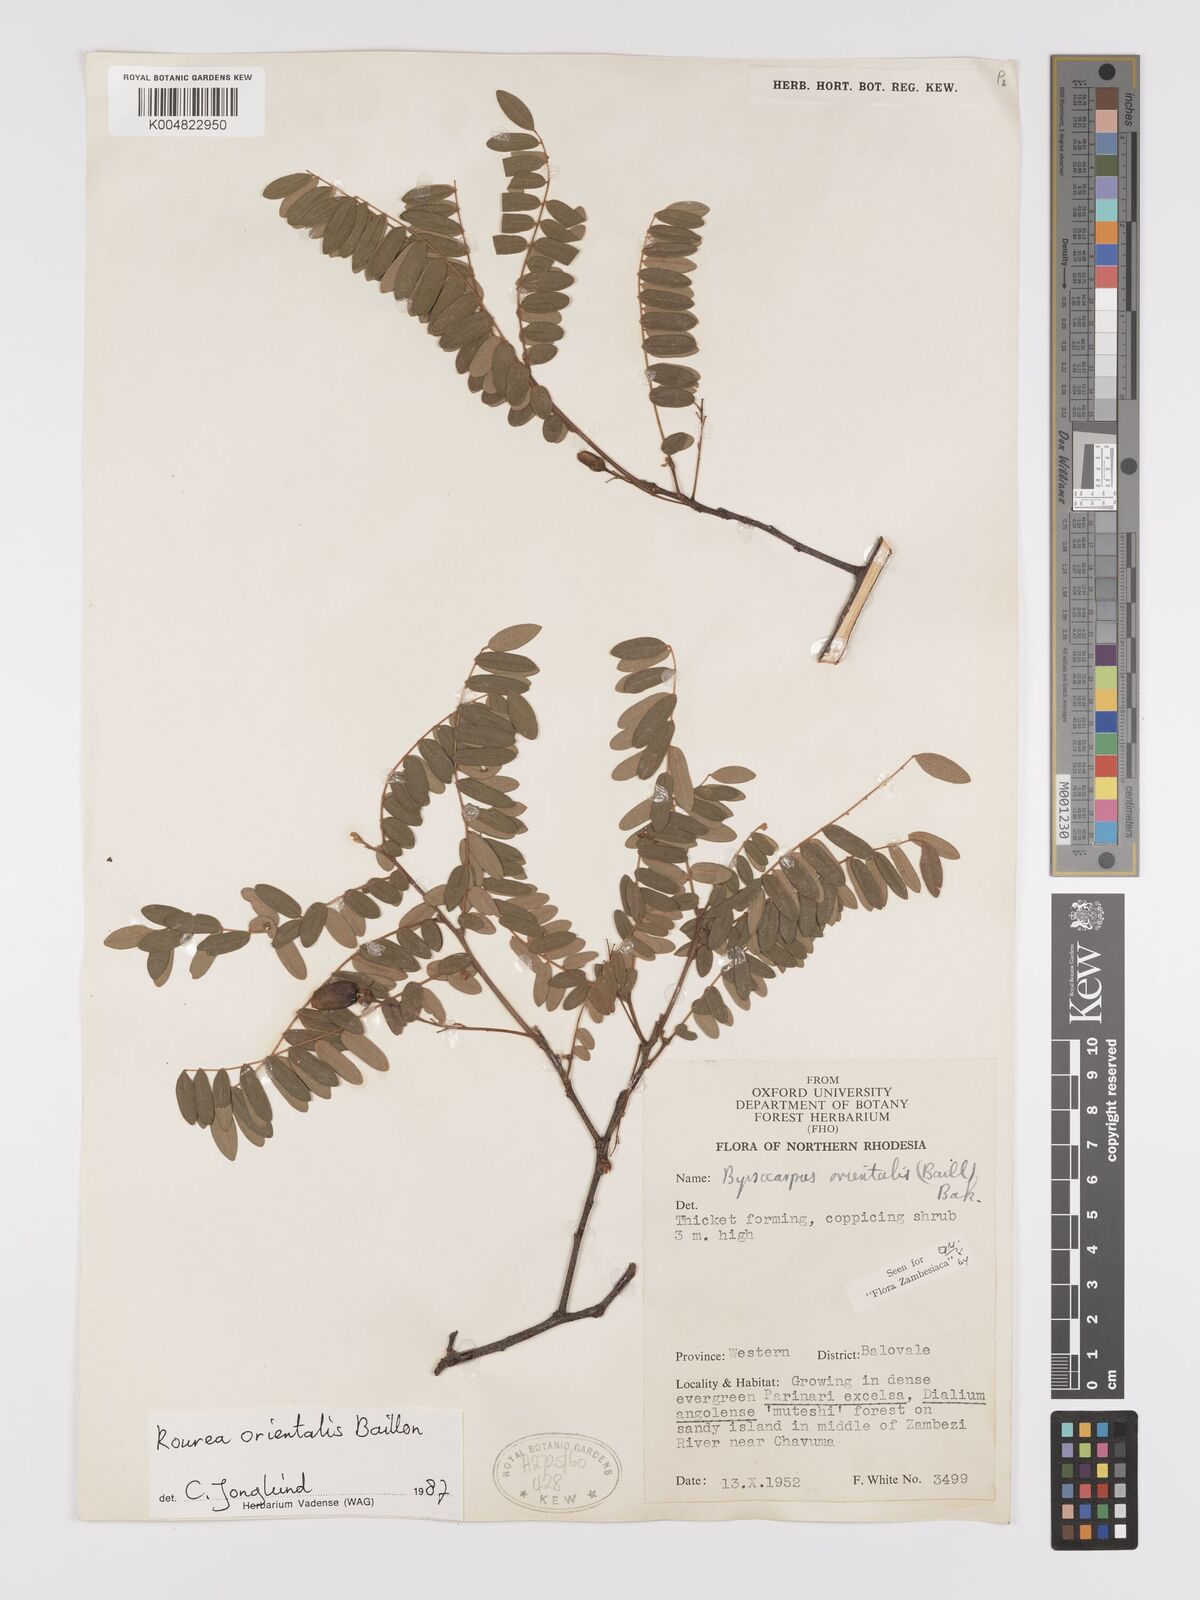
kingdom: Plantae
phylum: Tracheophyta
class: Magnoliopsida
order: Oxalidales
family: Connaraceae
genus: Rourea
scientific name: Rourea orientalis
